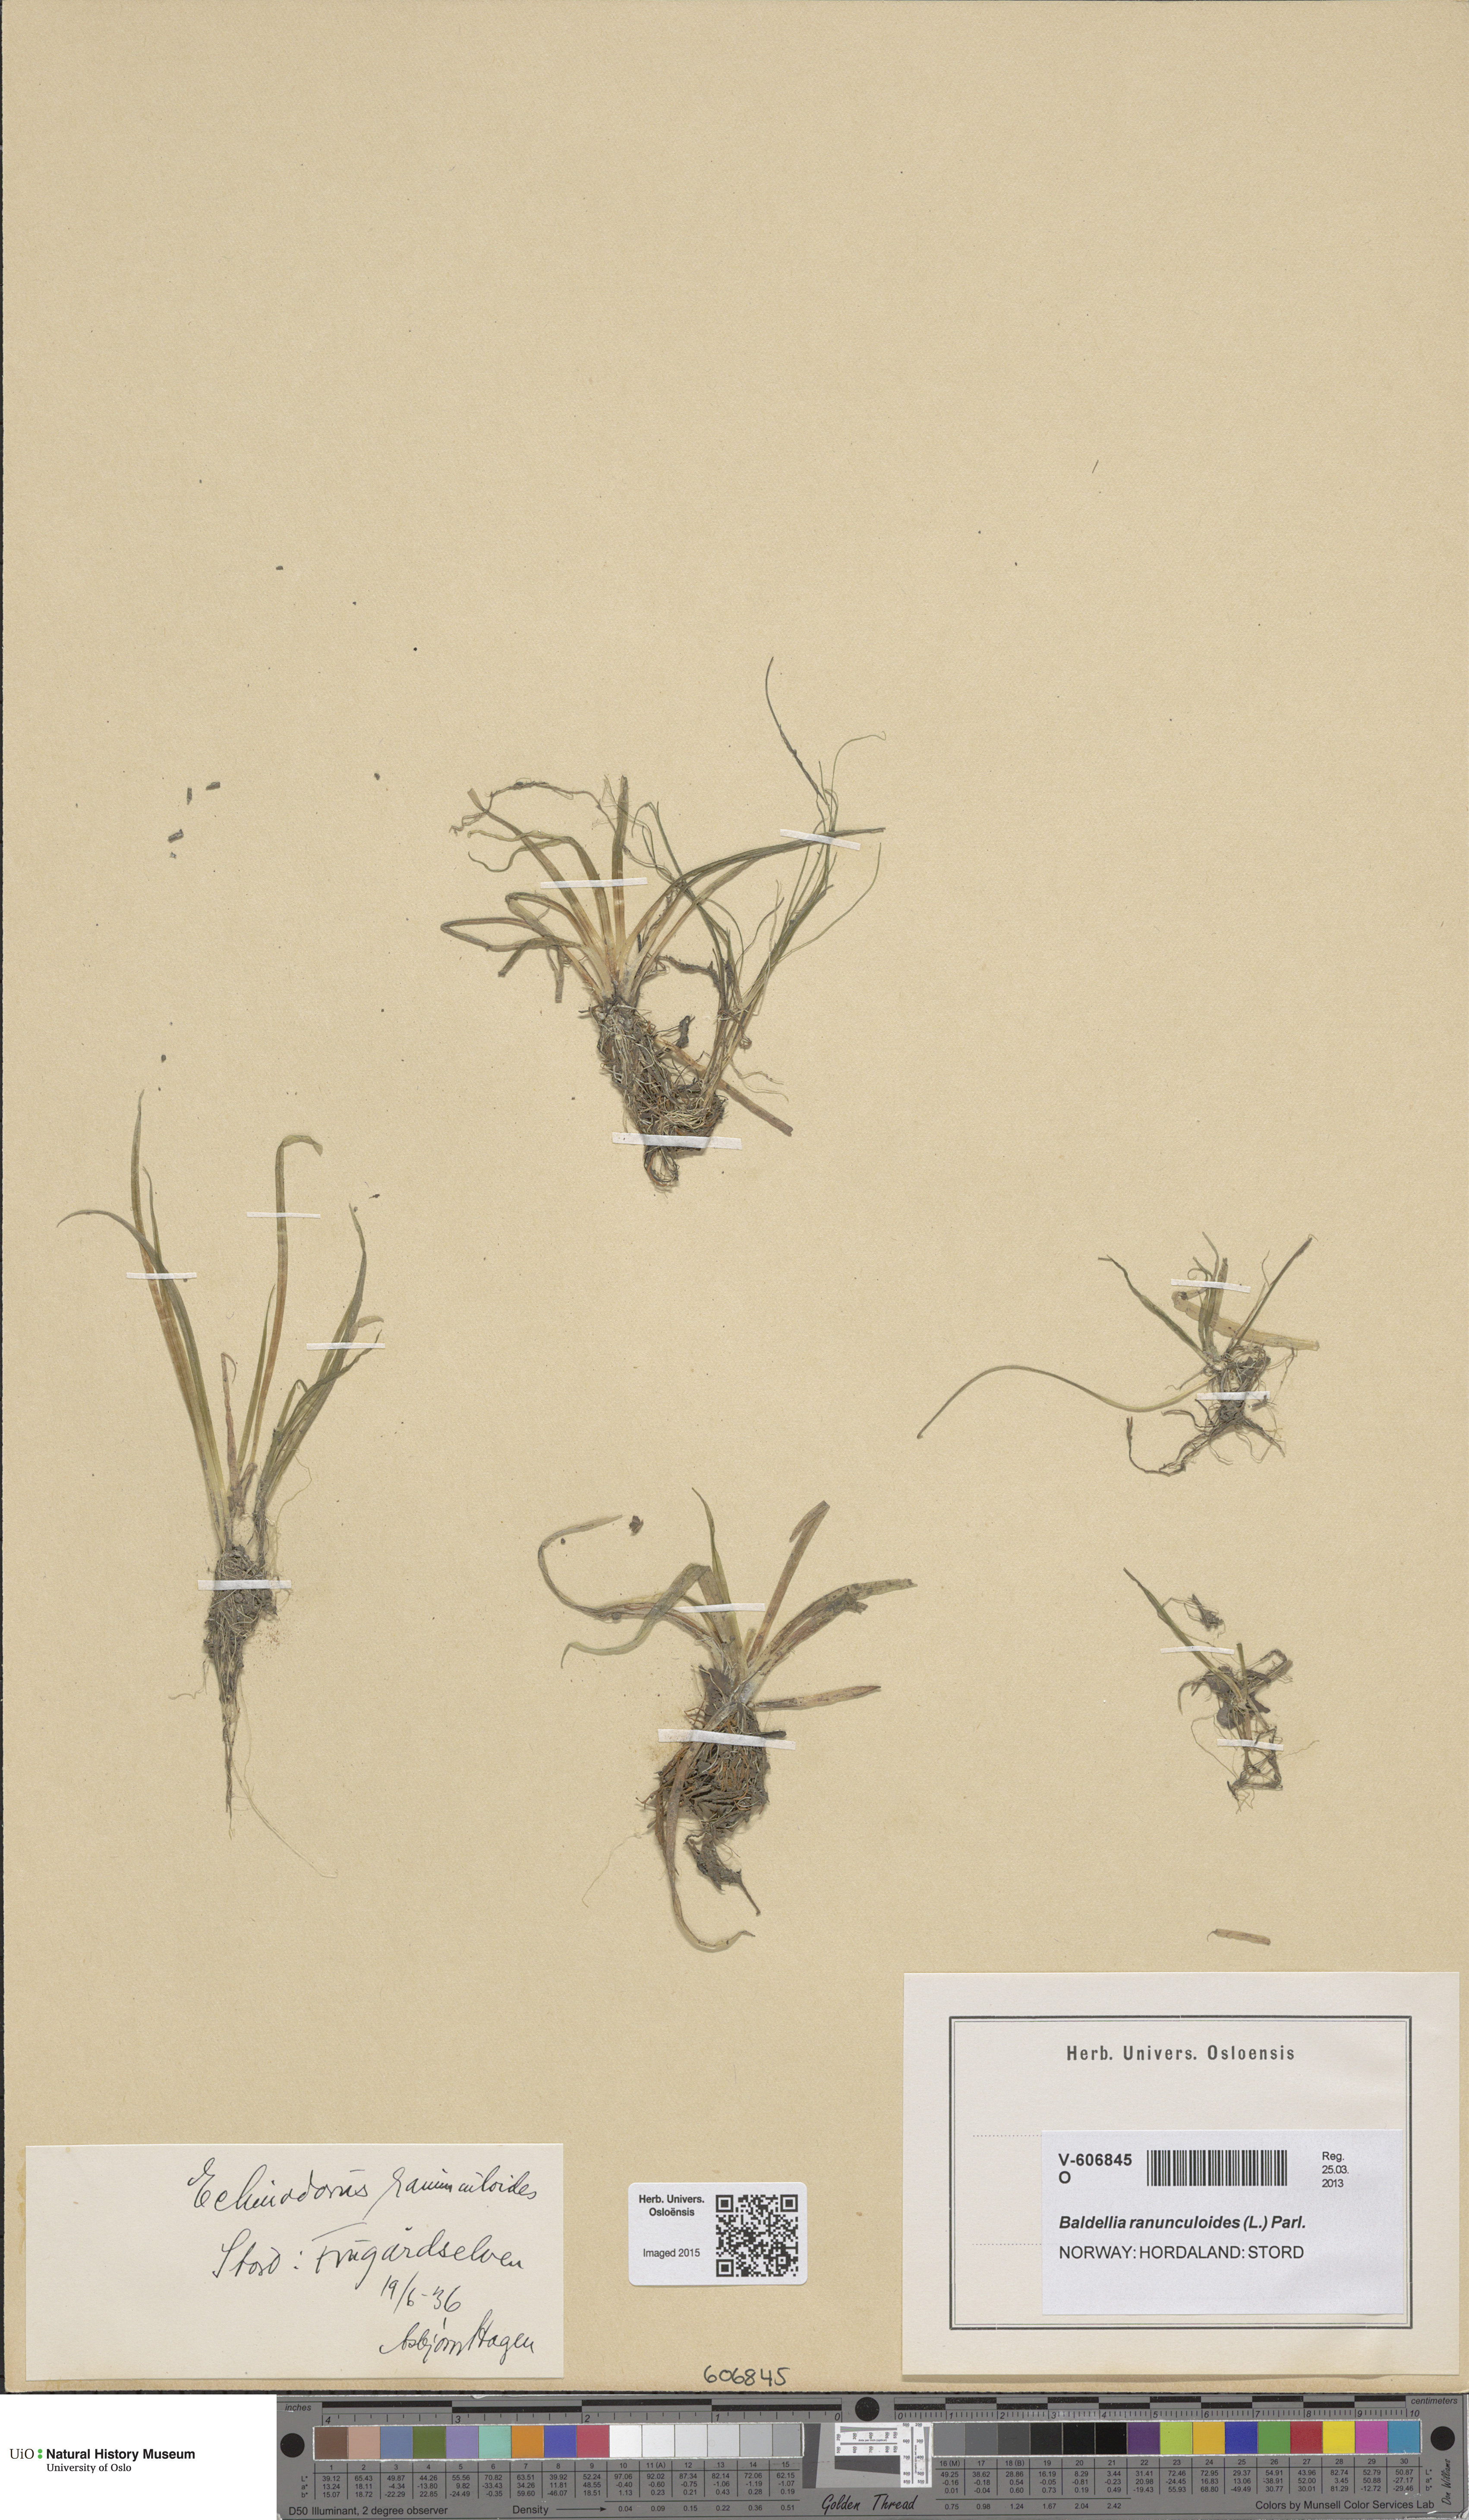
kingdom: Plantae
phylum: Tracheophyta
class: Liliopsida
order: Alismatales
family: Alismataceae
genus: Baldellia
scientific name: Baldellia repens
